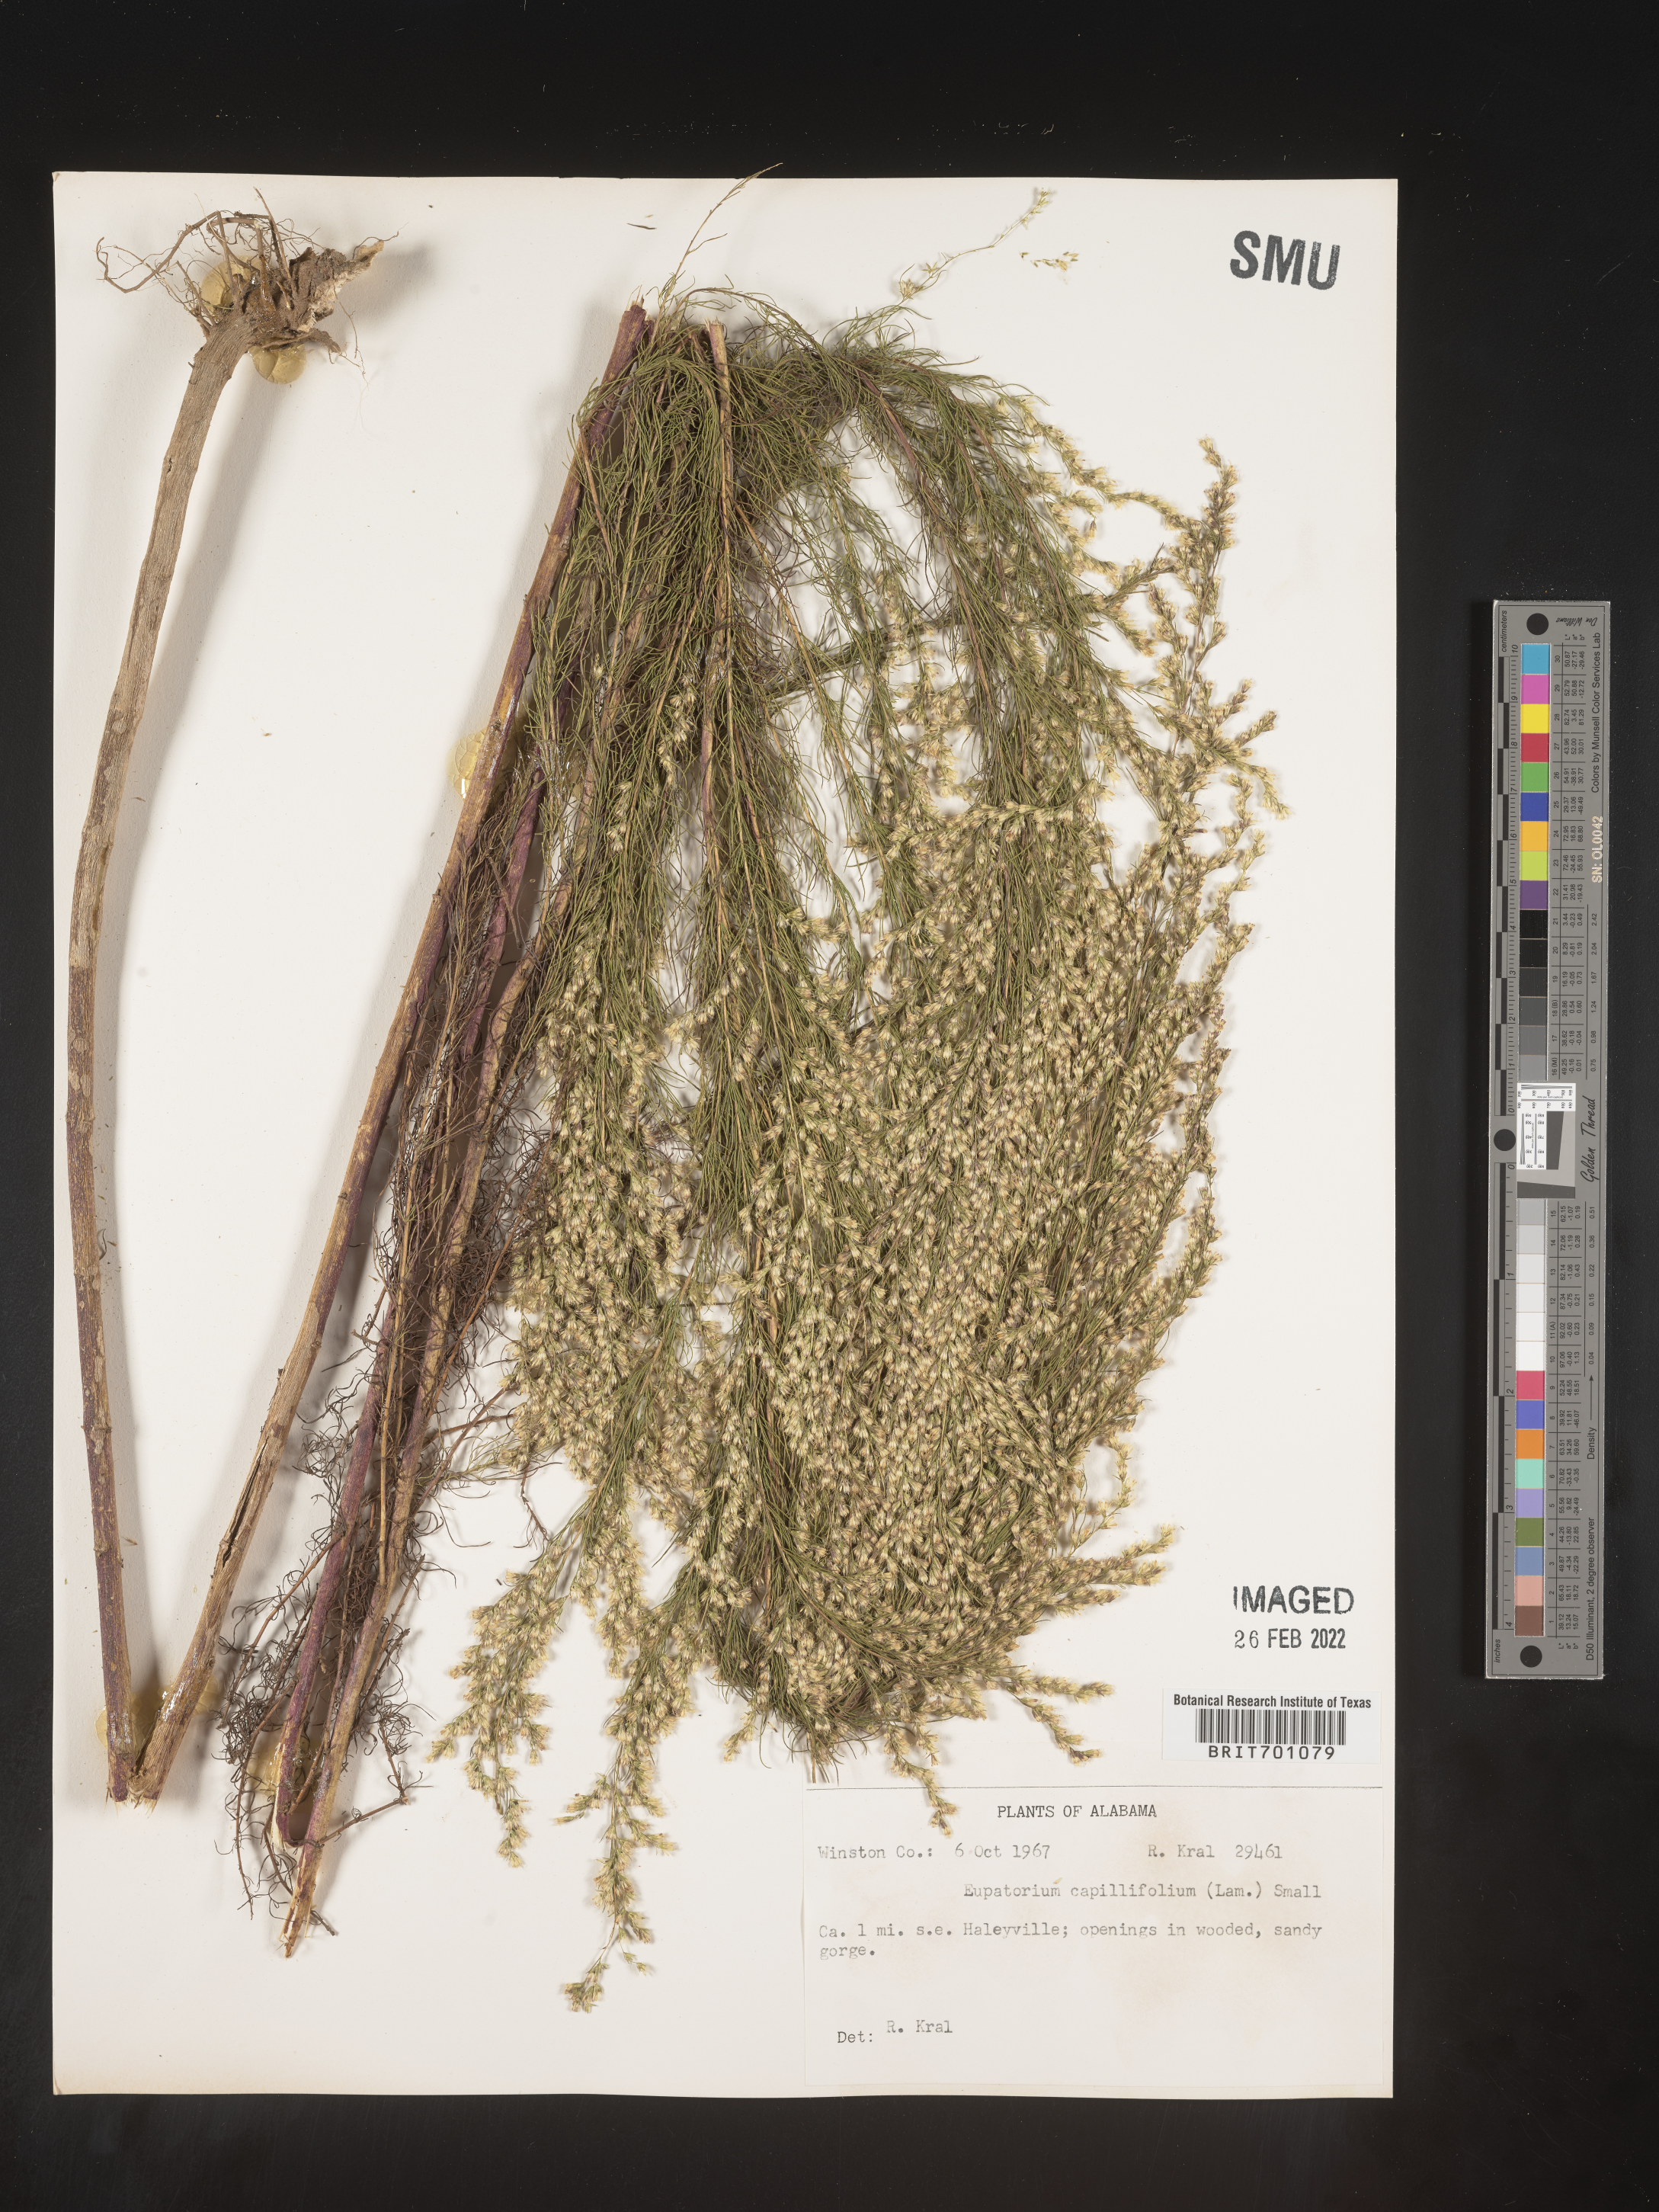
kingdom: Plantae
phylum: Tracheophyta
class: Magnoliopsida
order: Asterales
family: Asteraceae
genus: Eupatorium
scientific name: Eupatorium capillifolium
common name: Dog-fennel
